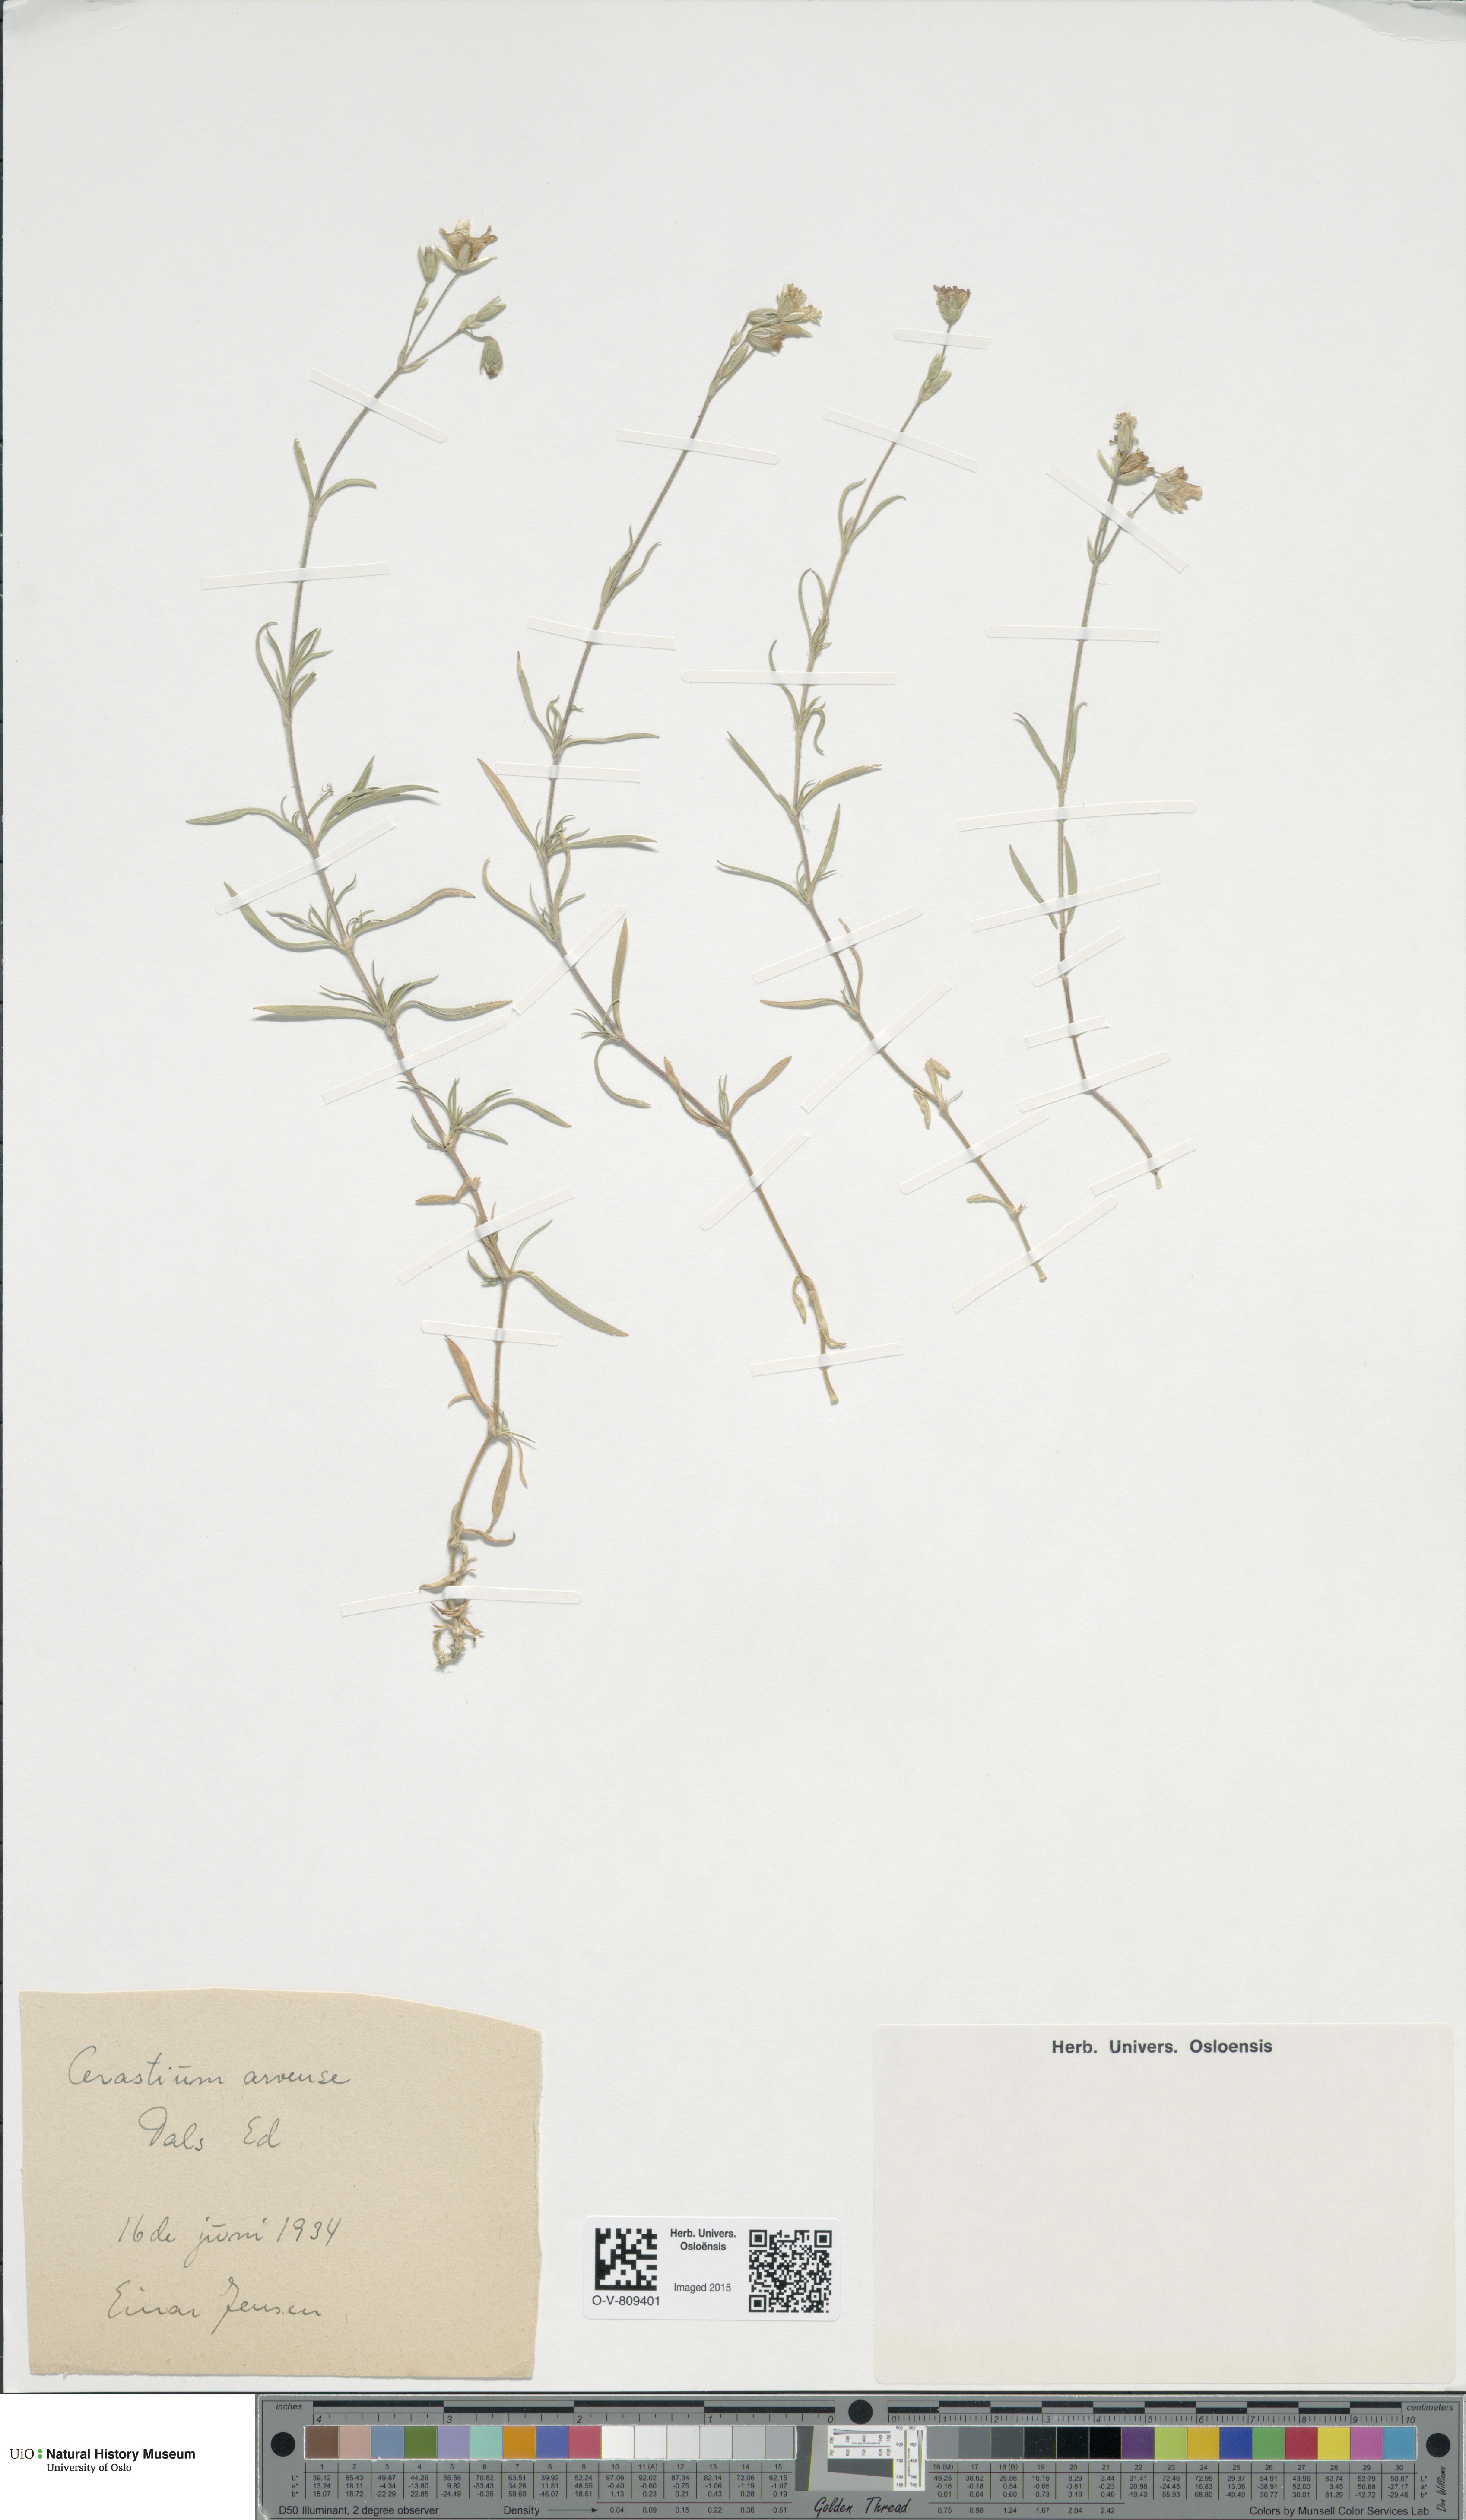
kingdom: Plantae
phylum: Tracheophyta
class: Magnoliopsida
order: Caryophyllales
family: Caryophyllaceae
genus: Cerastium
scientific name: Cerastium arvense
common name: Field mouse-ear
